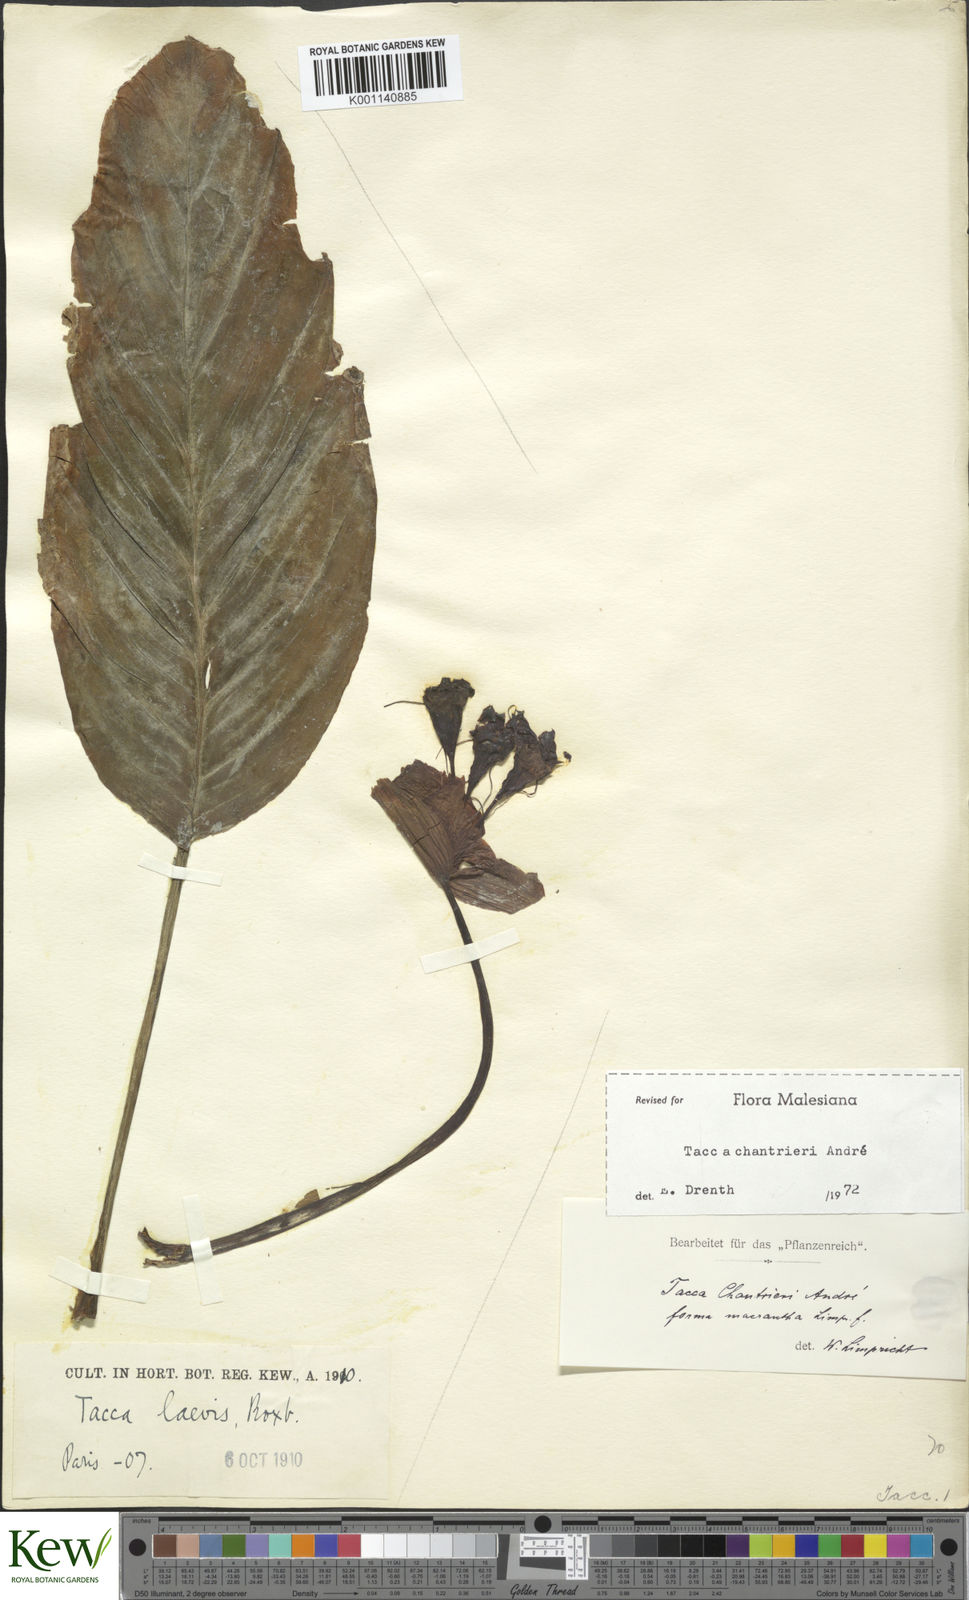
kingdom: Plantae
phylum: Tracheophyta
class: Liliopsida
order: Dioscoreales
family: Dioscoreaceae
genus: Tacca
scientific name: Tacca
